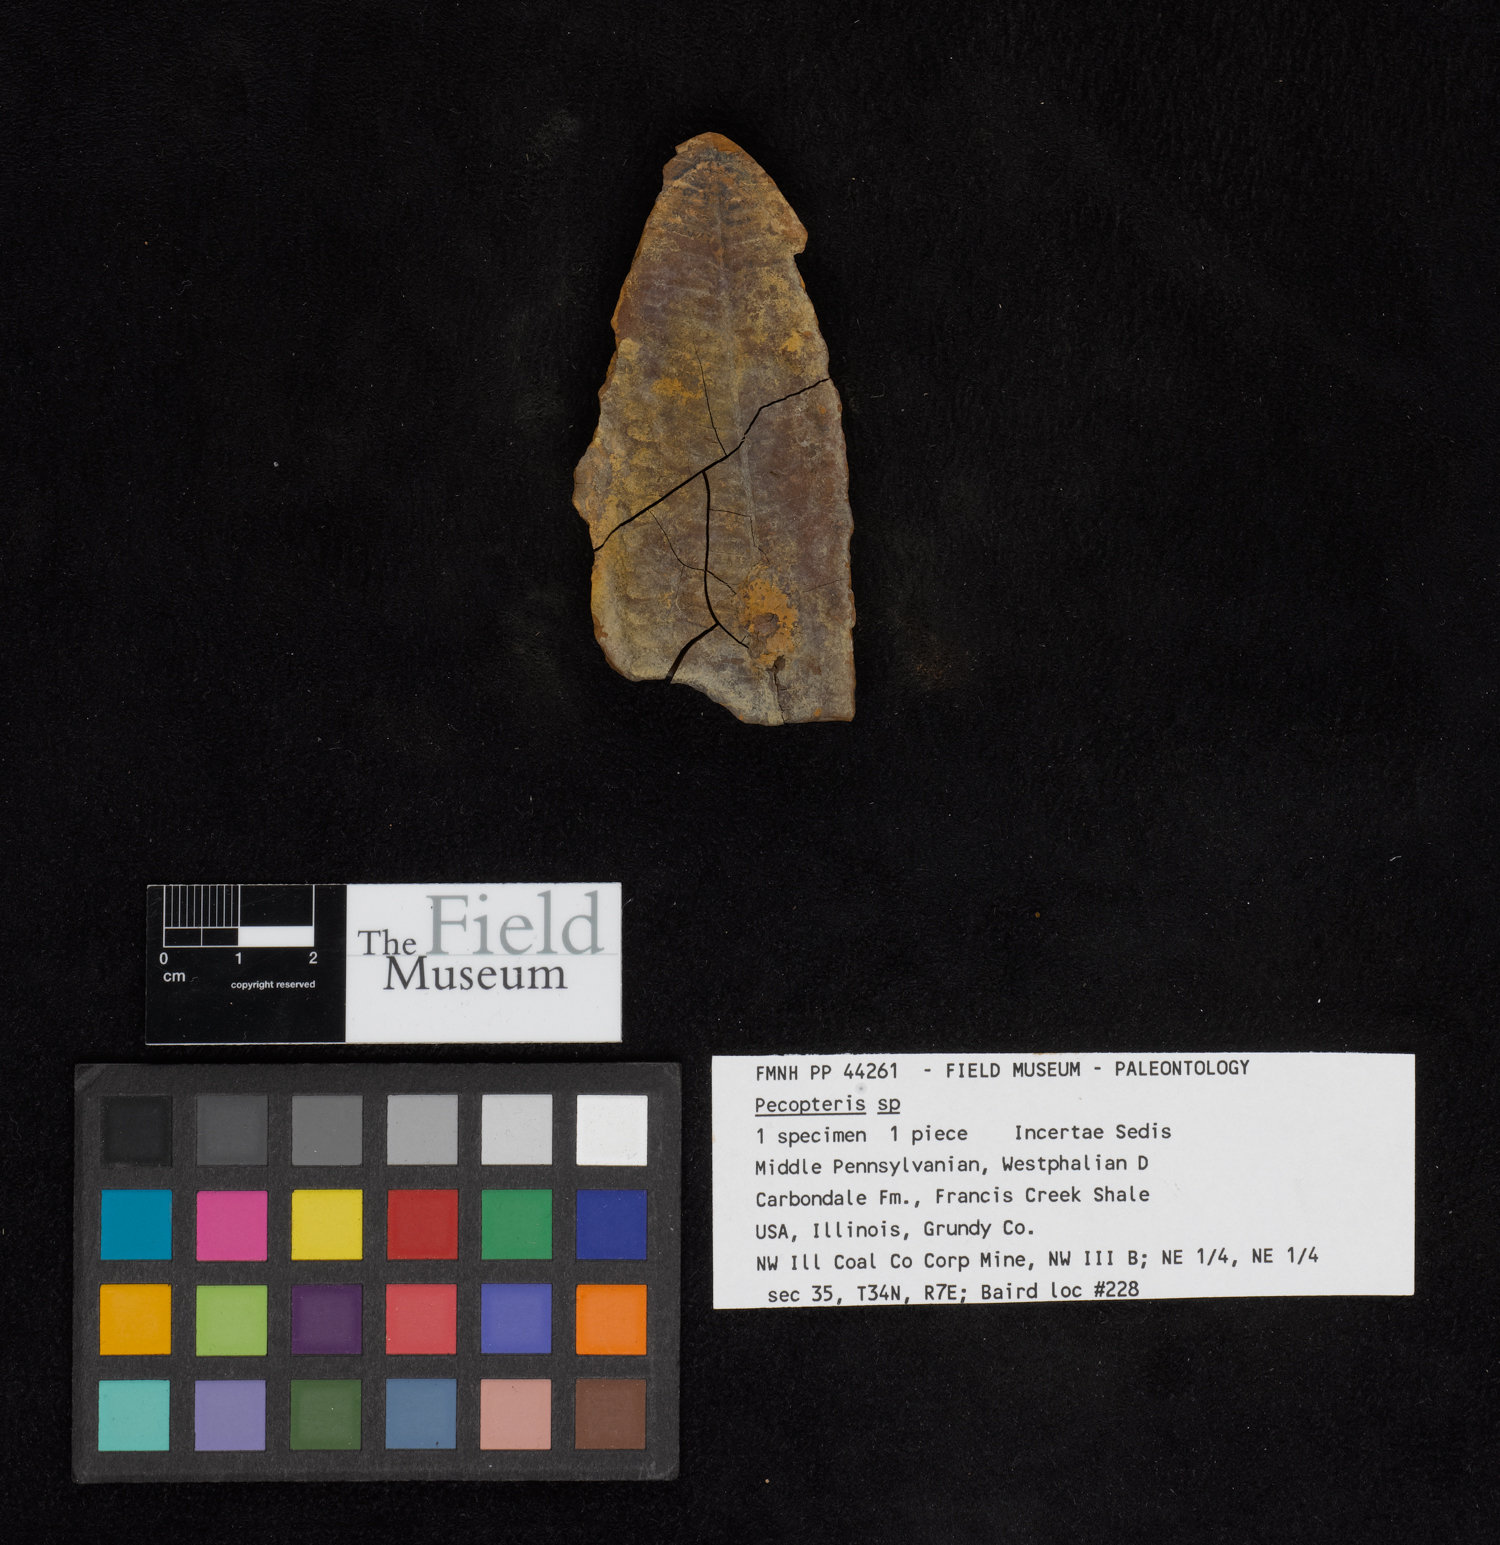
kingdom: Plantae
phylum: Tracheophyta
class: Polypodiopsida
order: Marattiales
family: Asterothecaceae
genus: Pecopteris
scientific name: Pecopteris
